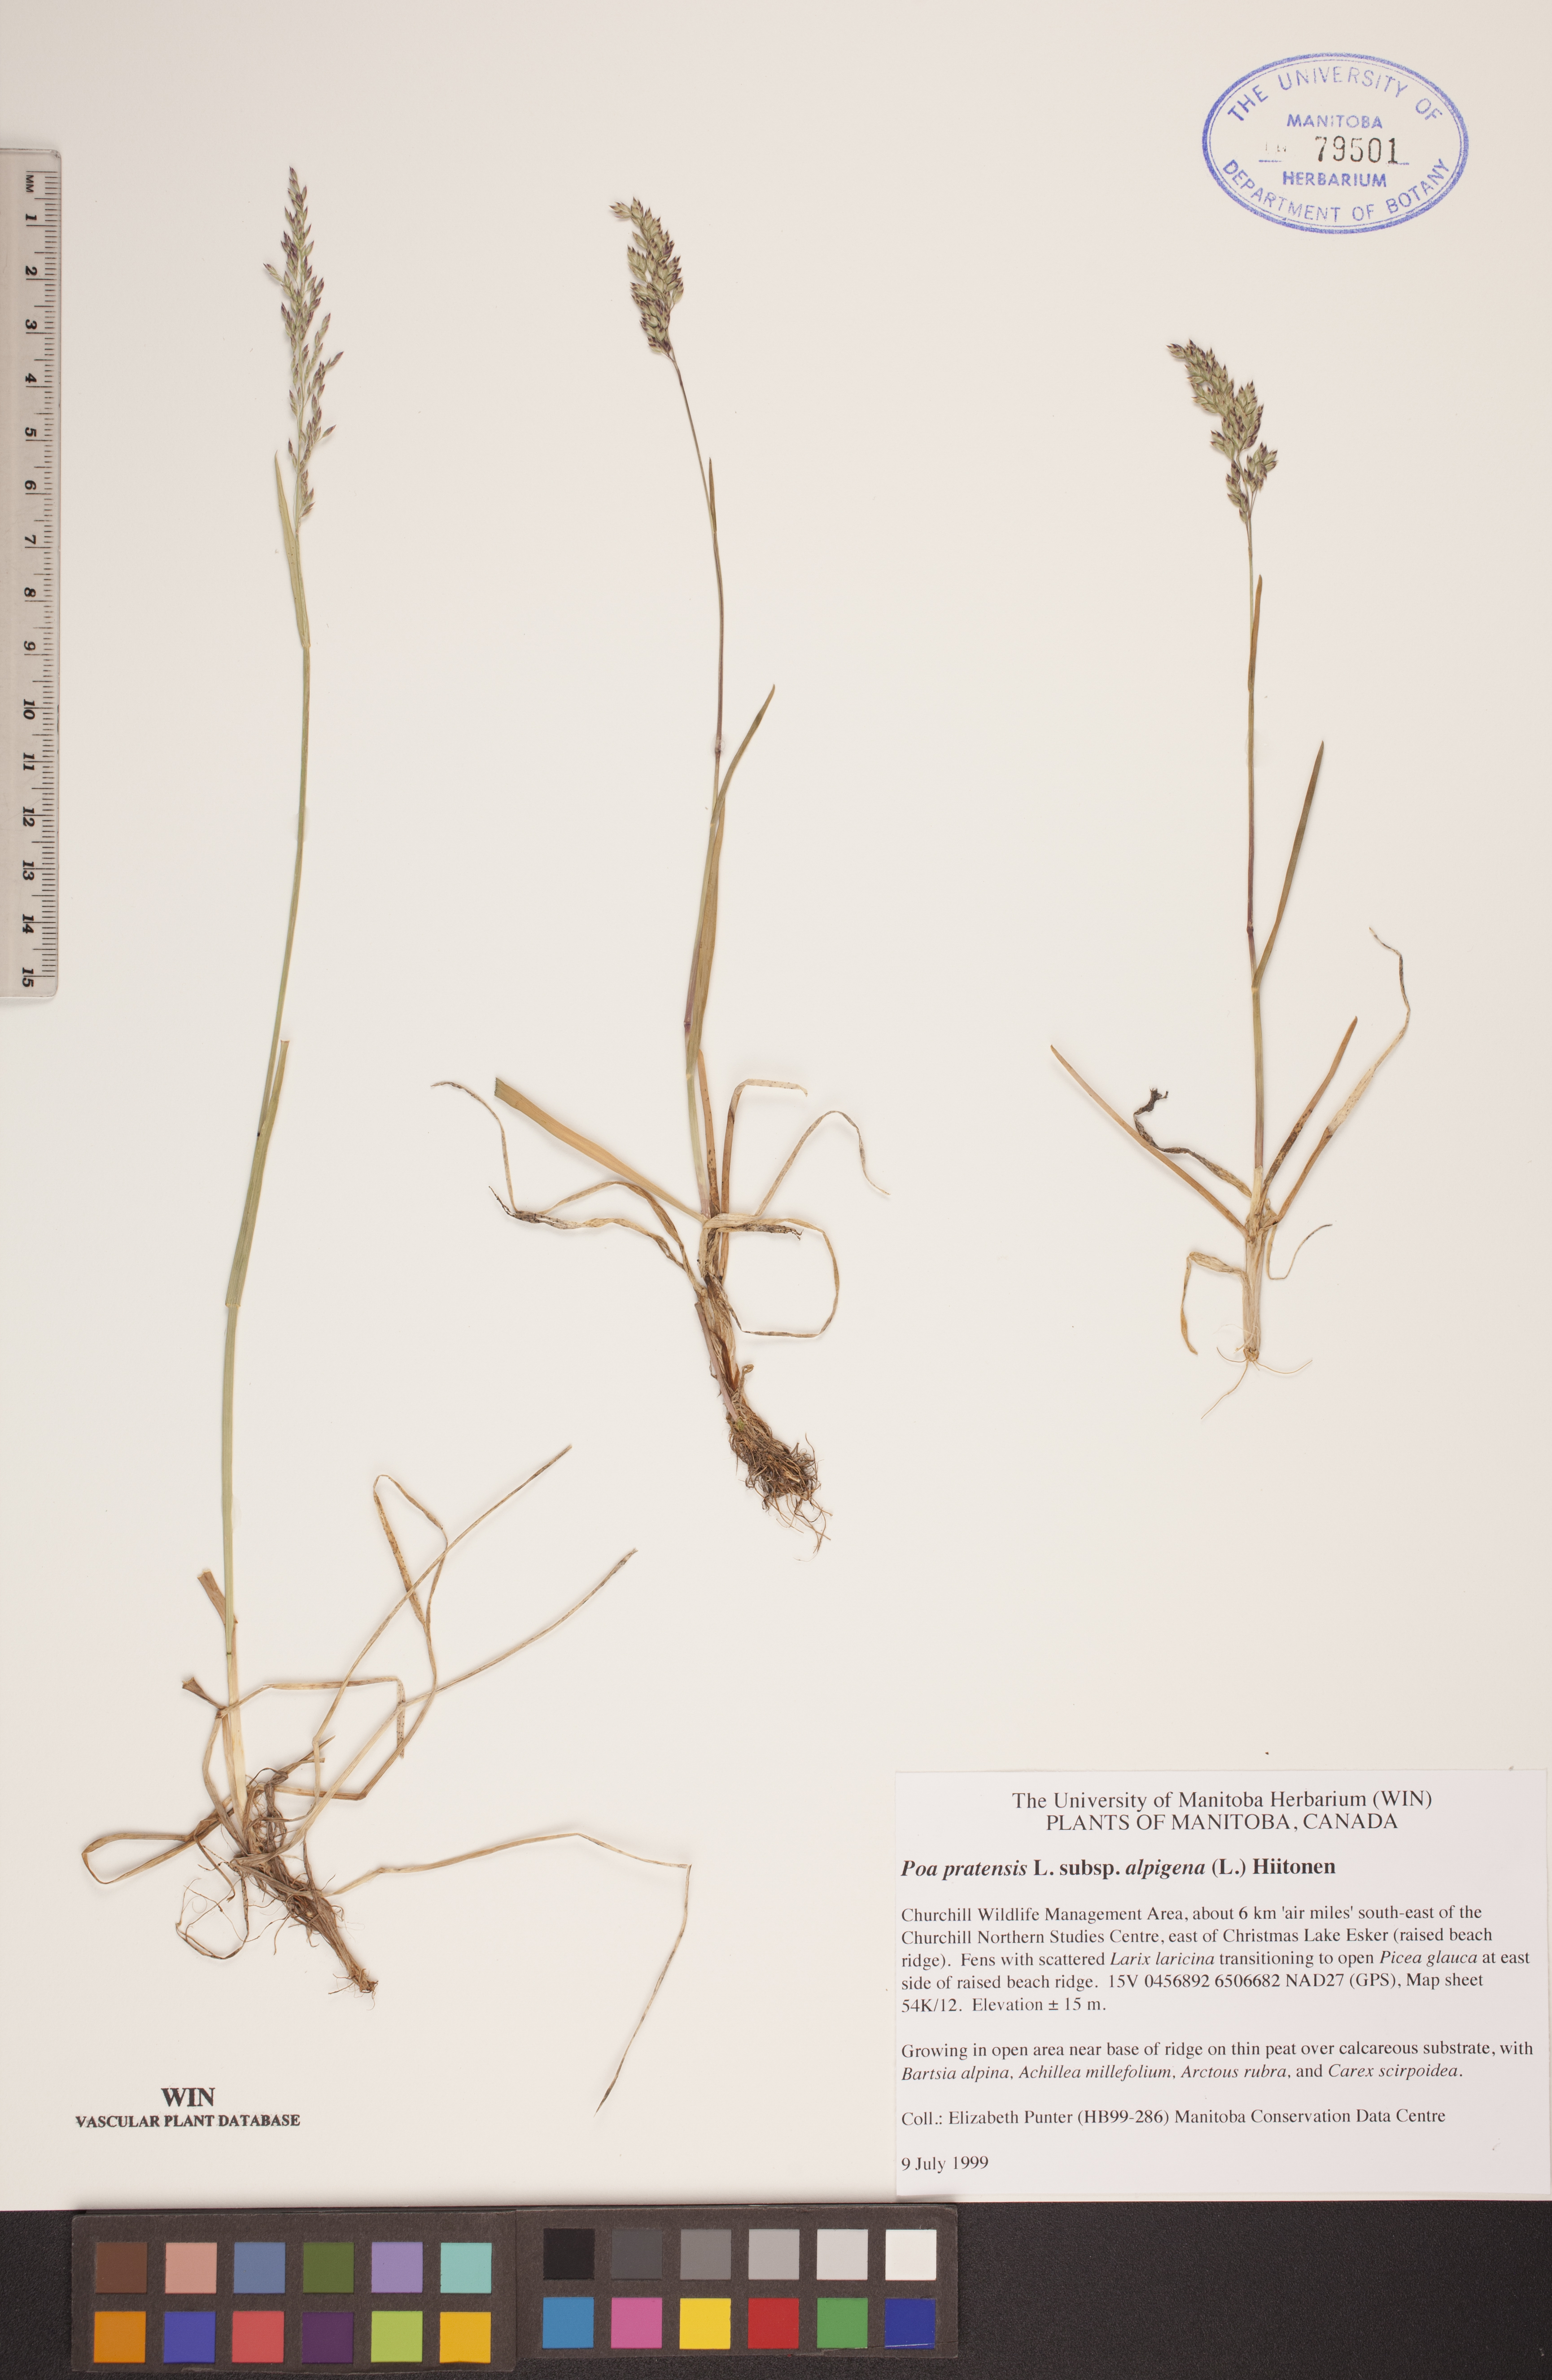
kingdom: Plantae
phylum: Tracheophyta
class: Liliopsida
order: Poales
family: Poaceae
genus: Poa
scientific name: Poa alpigena
